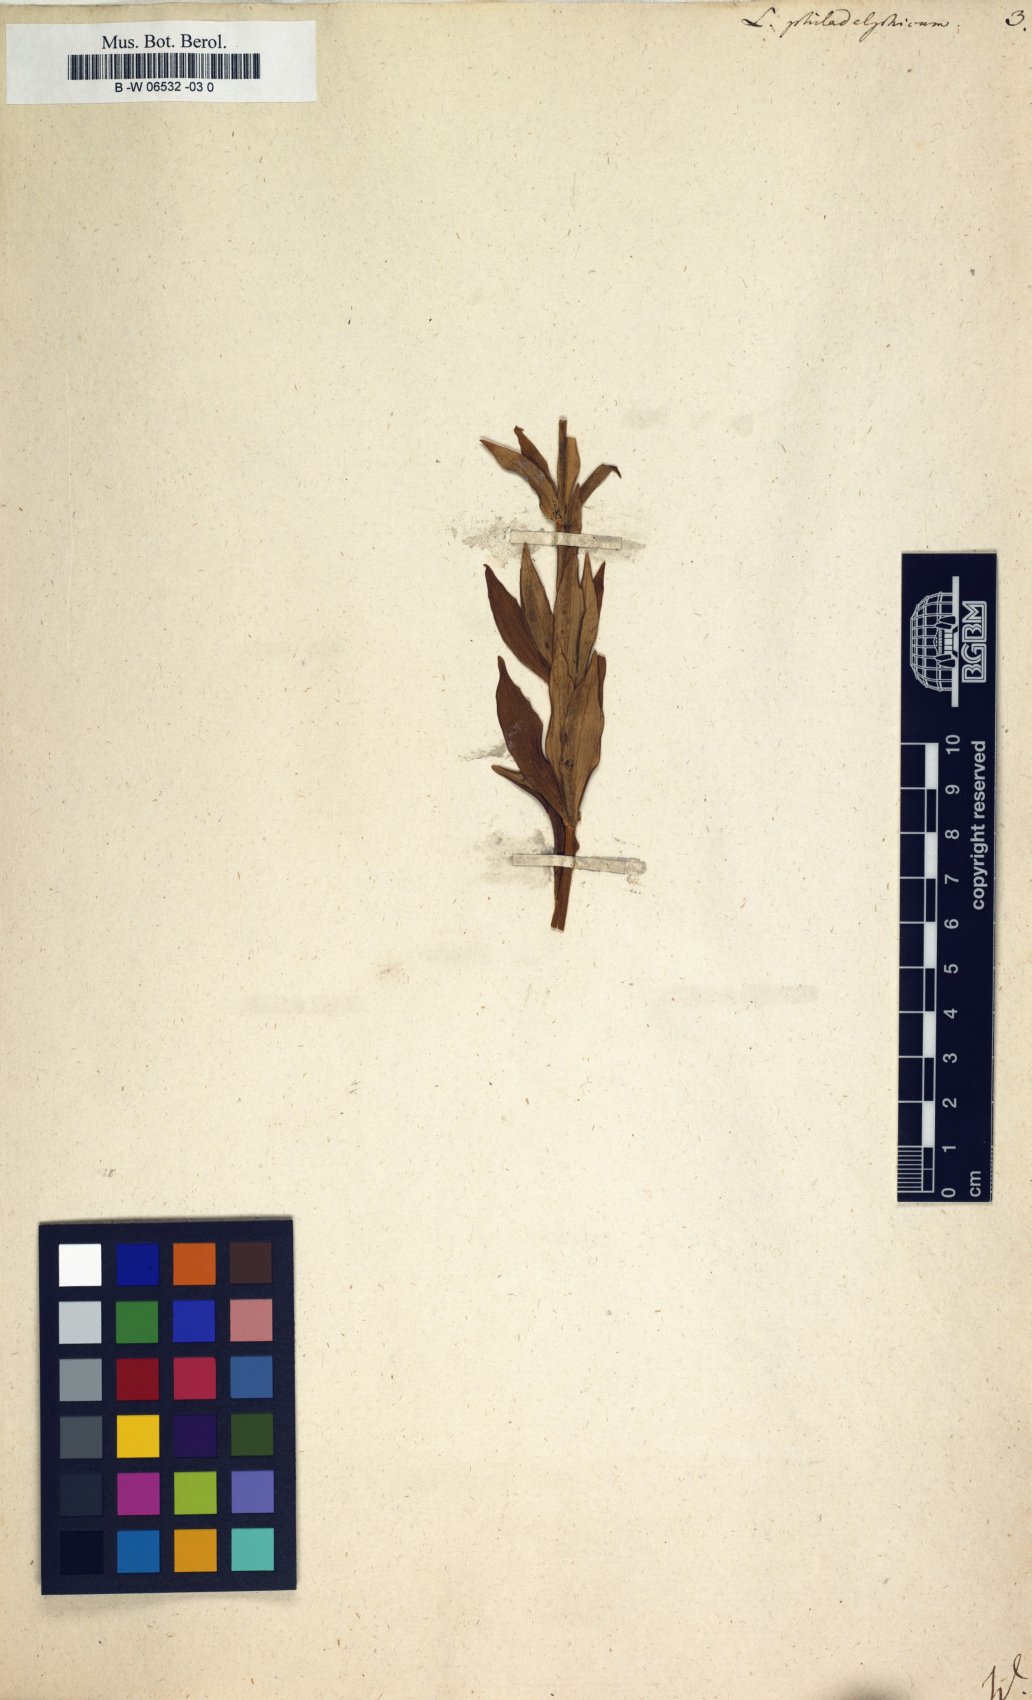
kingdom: Plantae
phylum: Tracheophyta
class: Liliopsida
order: Liliales
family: Liliaceae
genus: Lilium
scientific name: Lilium philadelphicum
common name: Red lily
